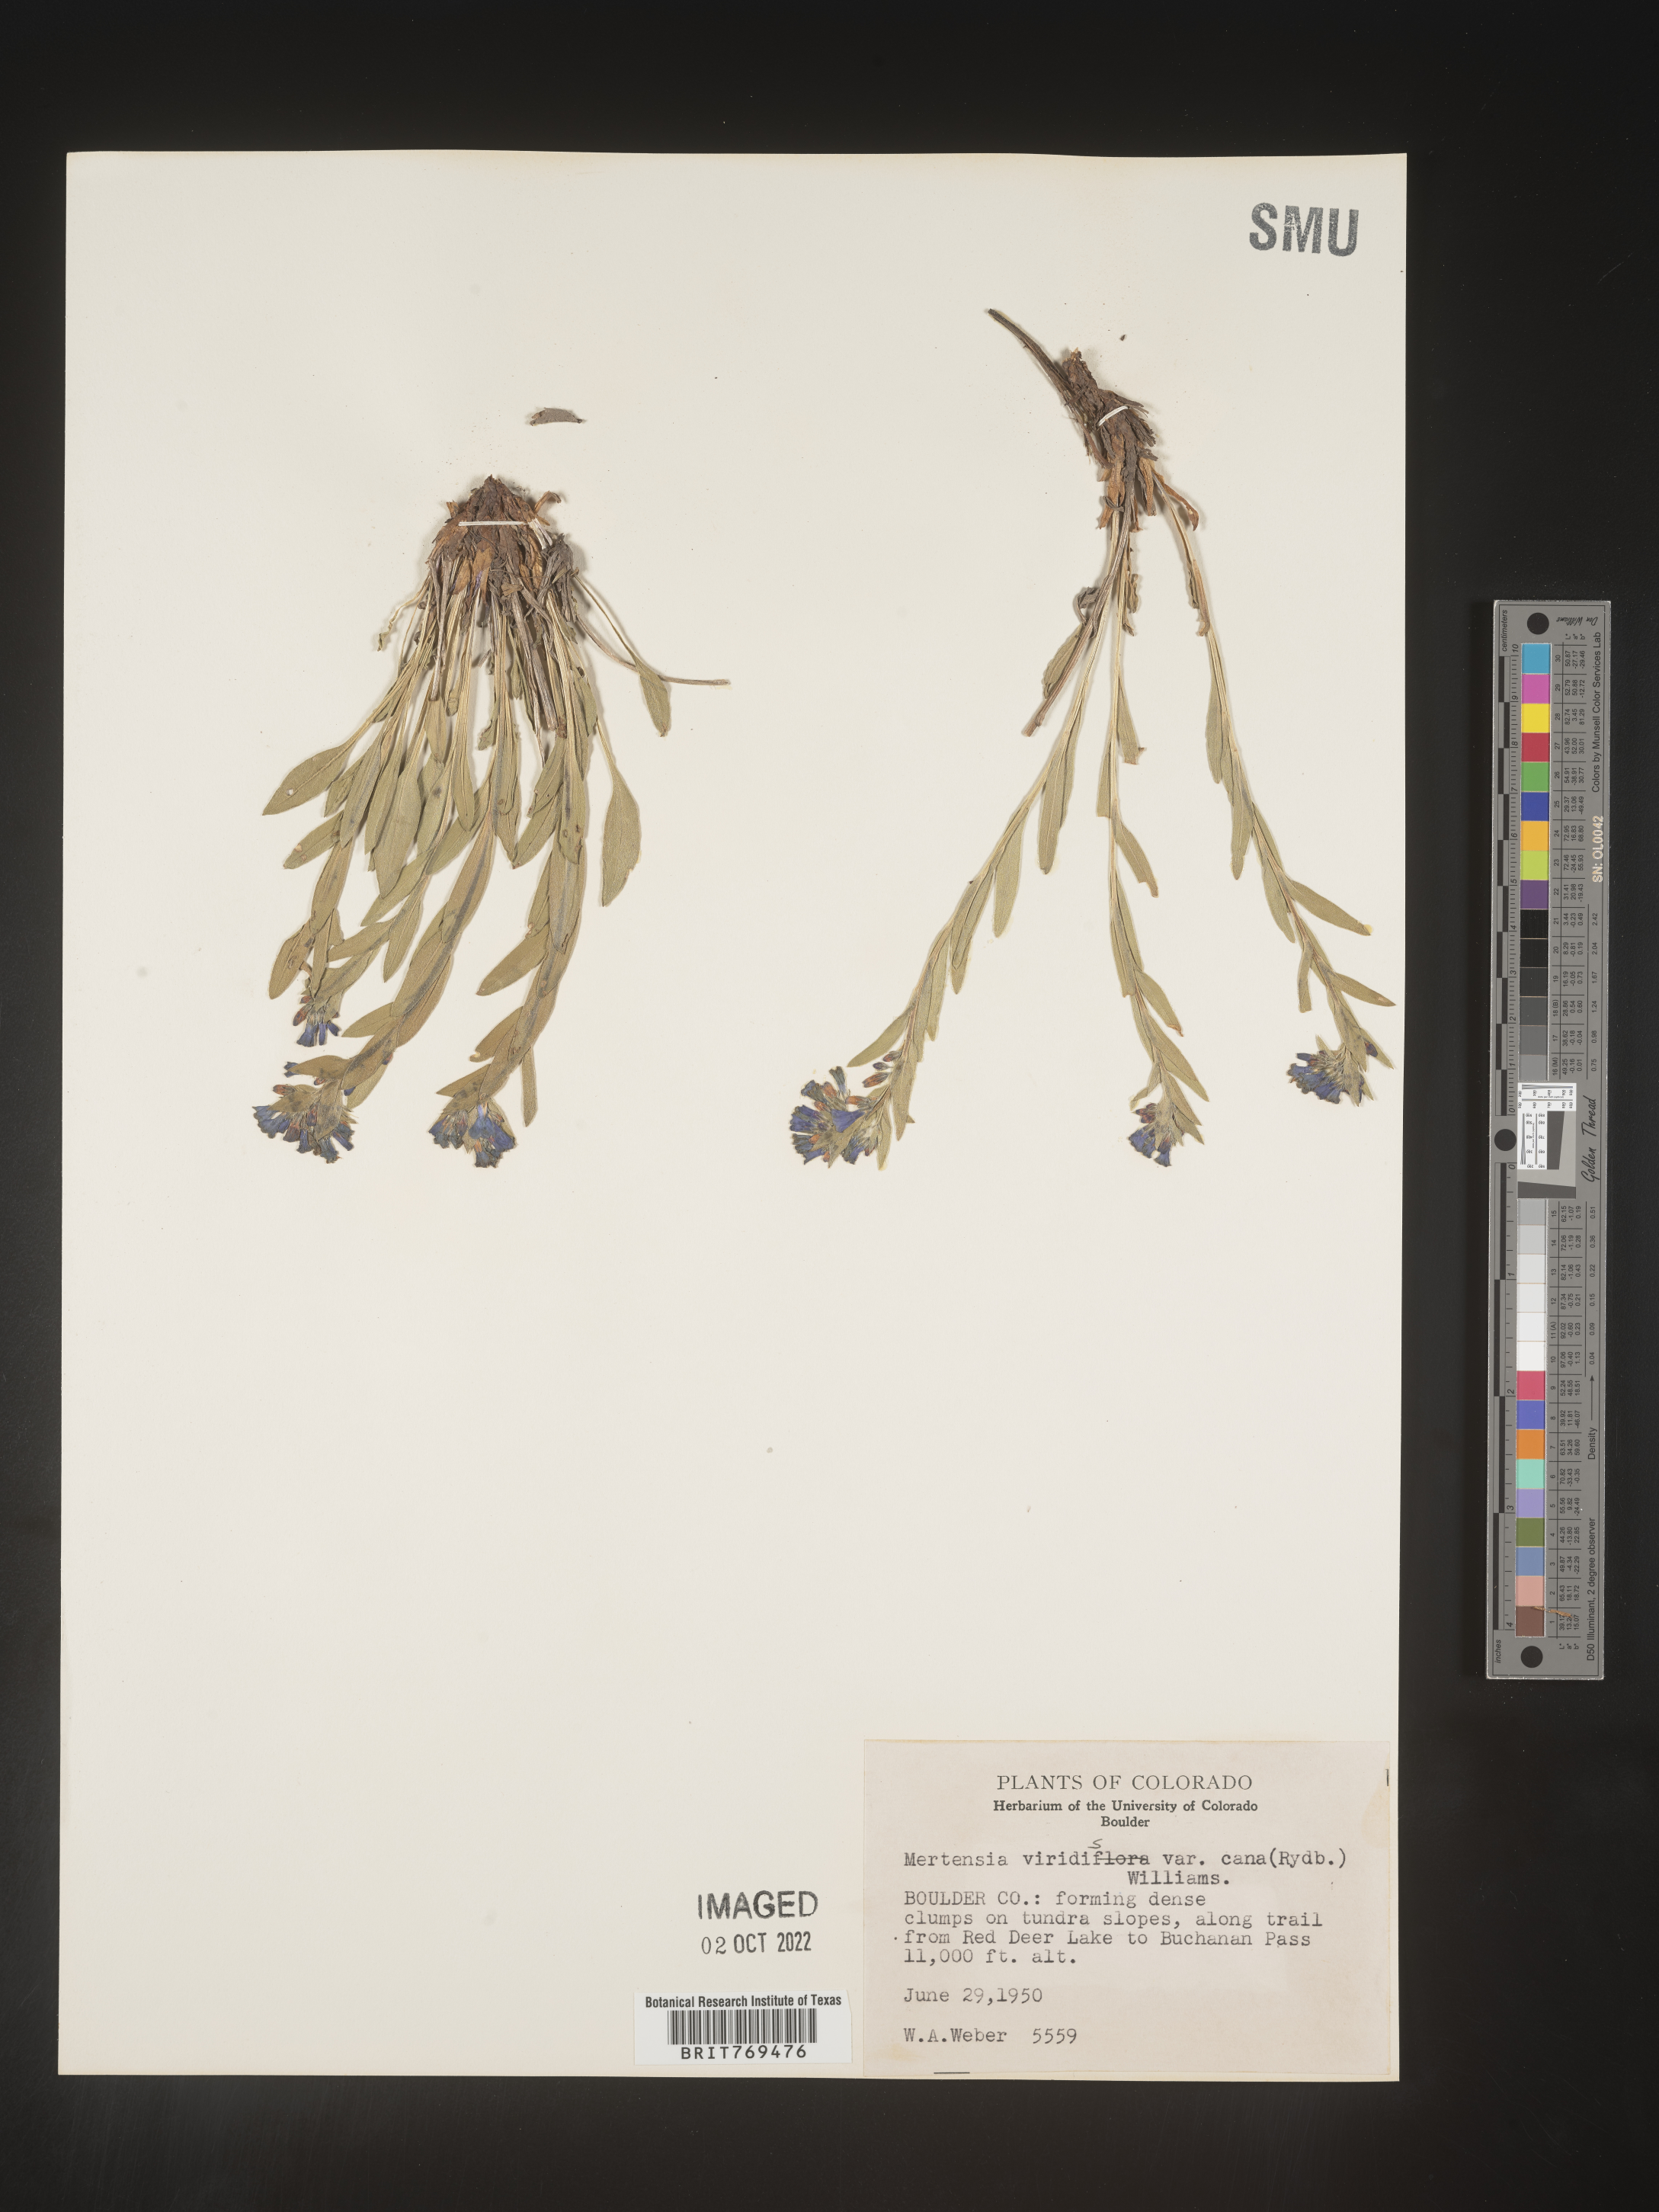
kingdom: Plantae
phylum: Tracheophyta
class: Magnoliopsida
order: Boraginales
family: Boraginaceae
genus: Mertensia
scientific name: Mertensia viridis
